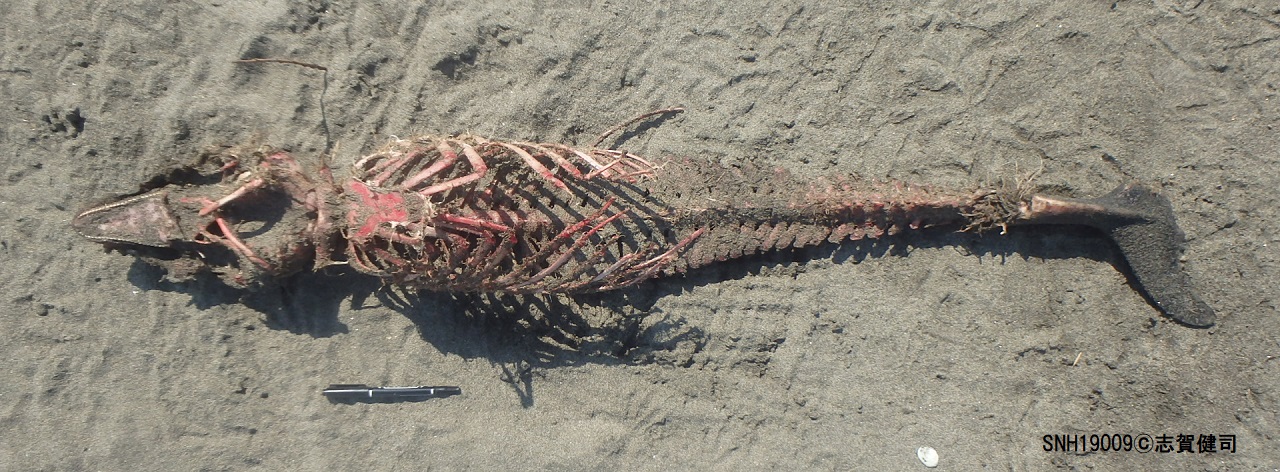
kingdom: Animalia
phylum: Chordata
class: Mammalia
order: Cetacea
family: Phocoenidae
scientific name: Phocoenidae
